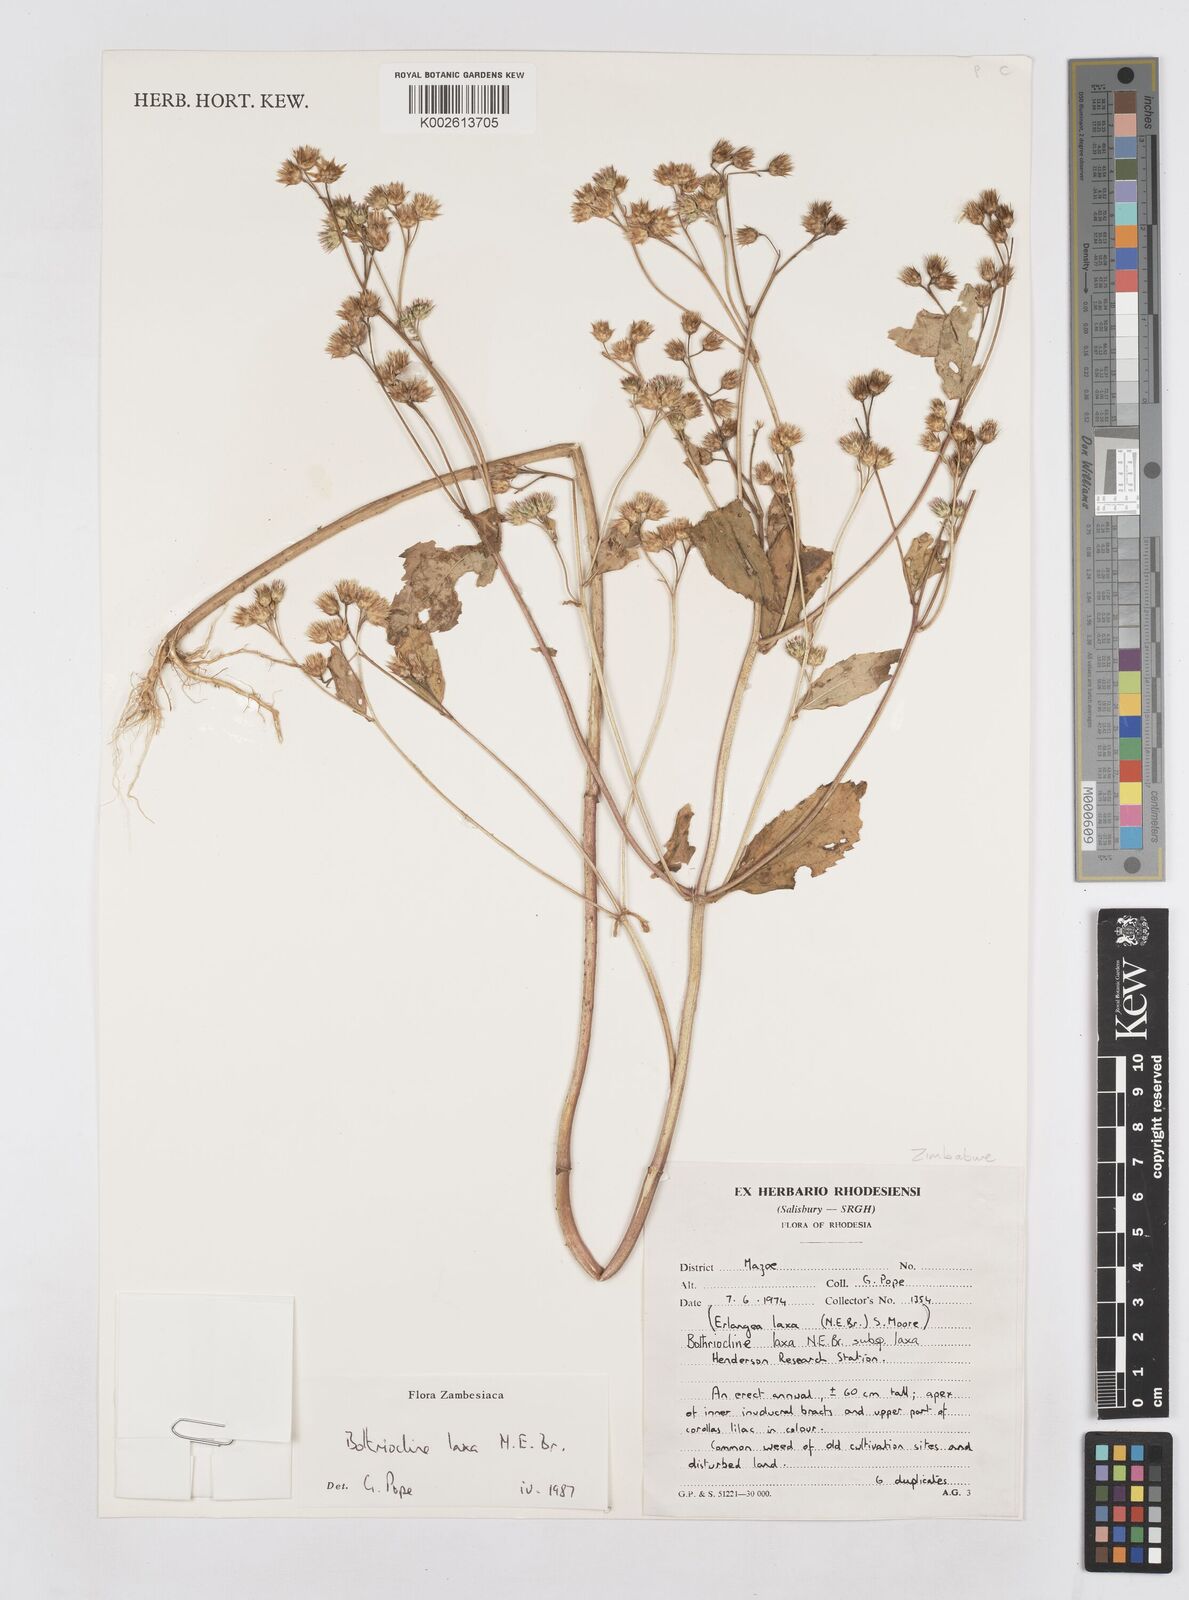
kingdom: Plantae
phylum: Tracheophyta
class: Magnoliopsida
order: Asterales
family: Asteraceae
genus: Bothriocline
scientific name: Bothriocline laxa
